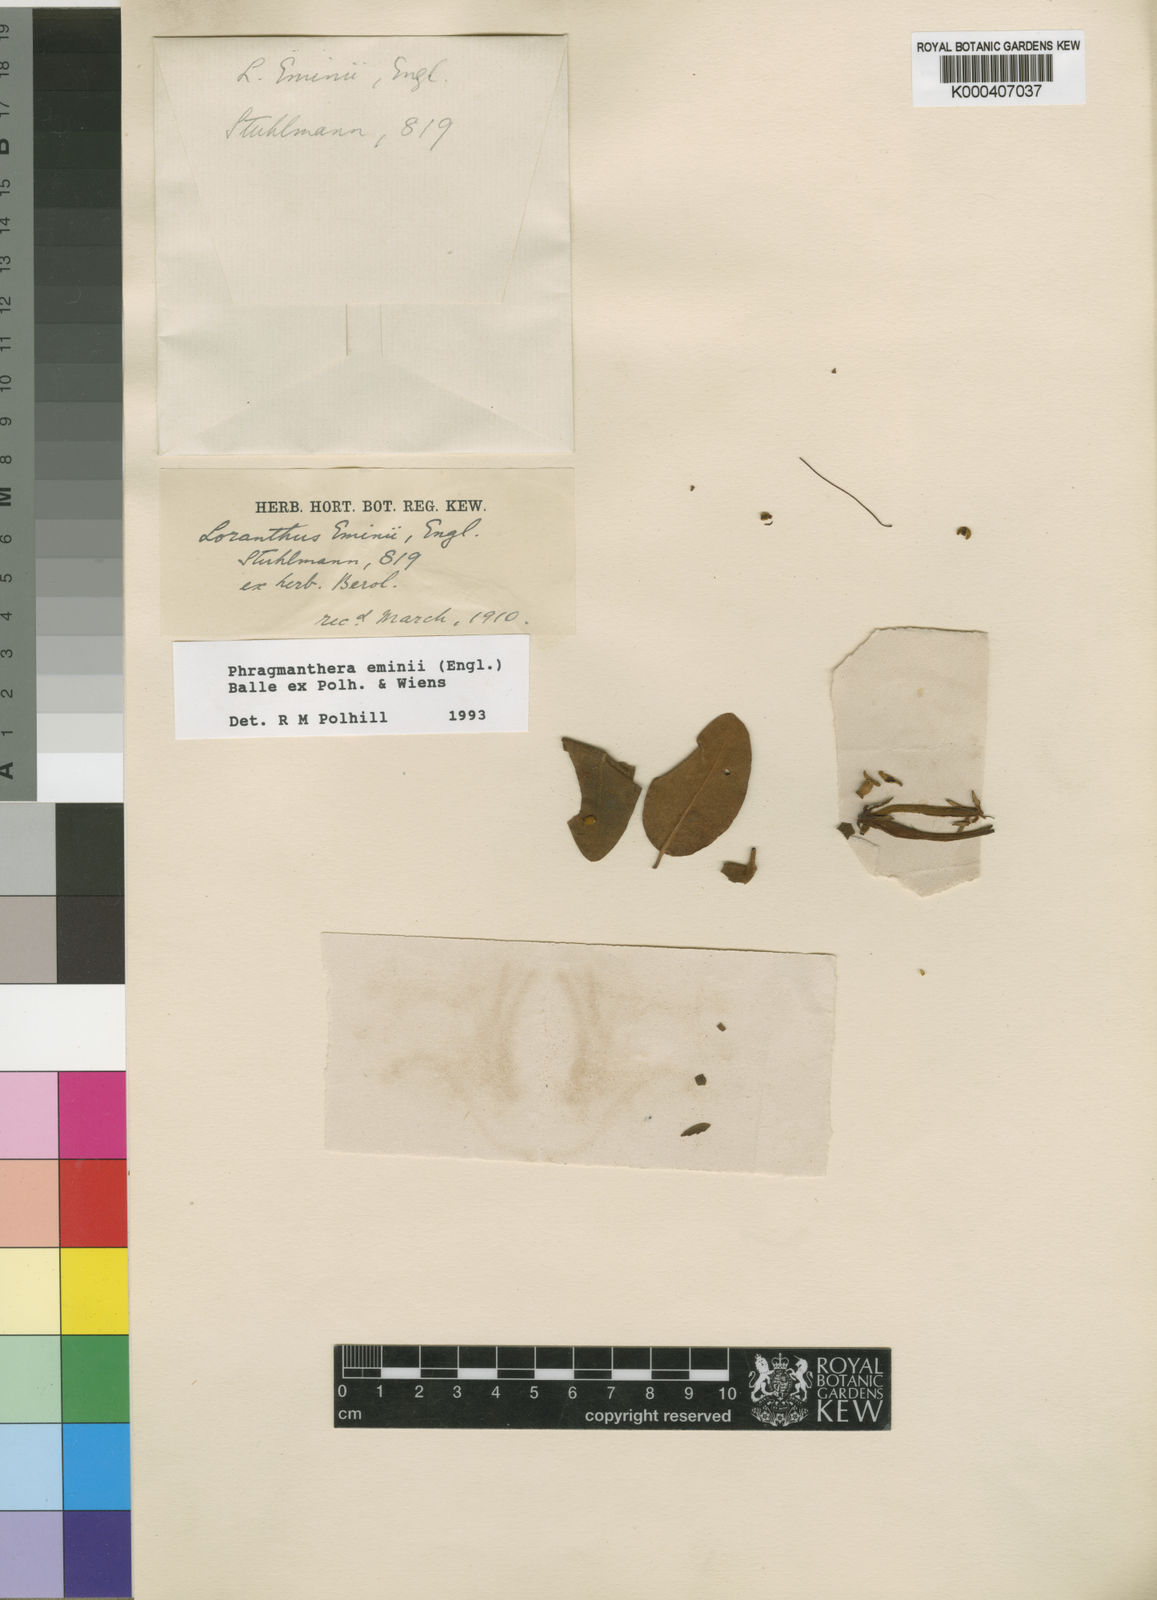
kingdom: Plantae
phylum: Tracheophyta
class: Magnoliopsida
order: Santalales
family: Loranthaceae
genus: Phragmanthera
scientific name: Phragmanthera eminii
